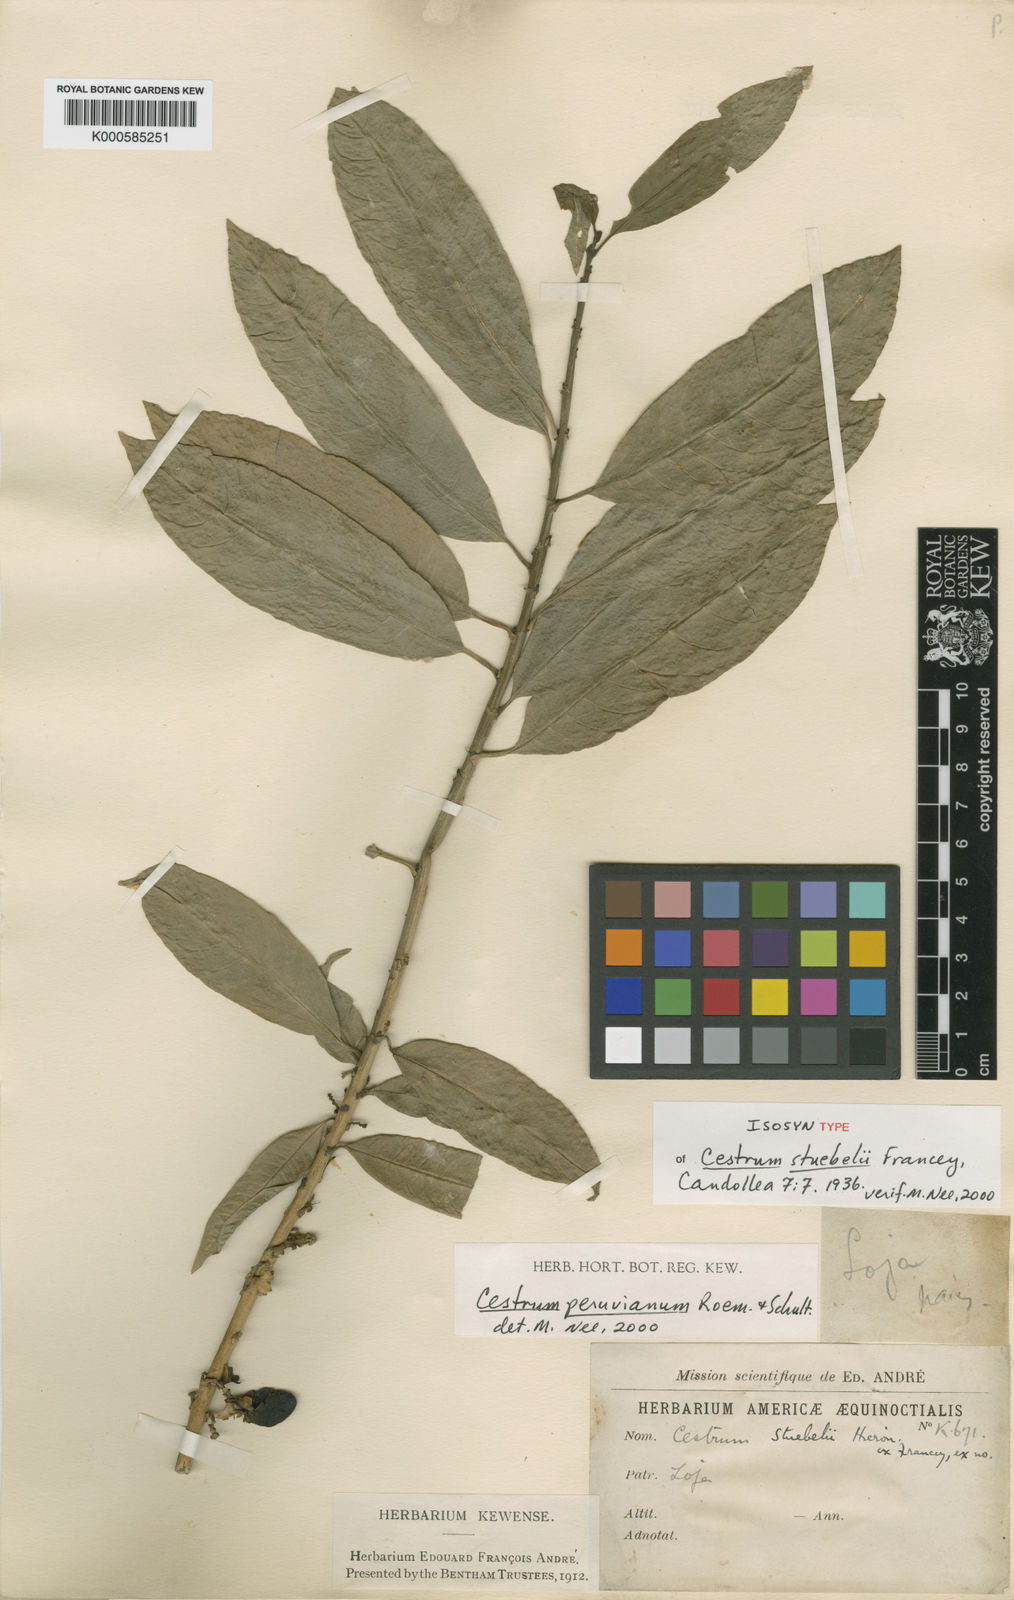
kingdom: Plantae
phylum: Tracheophyta
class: Magnoliopsida
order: Solanales
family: Solanaceae
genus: Cestrum
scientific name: Cestrum stuebelii
